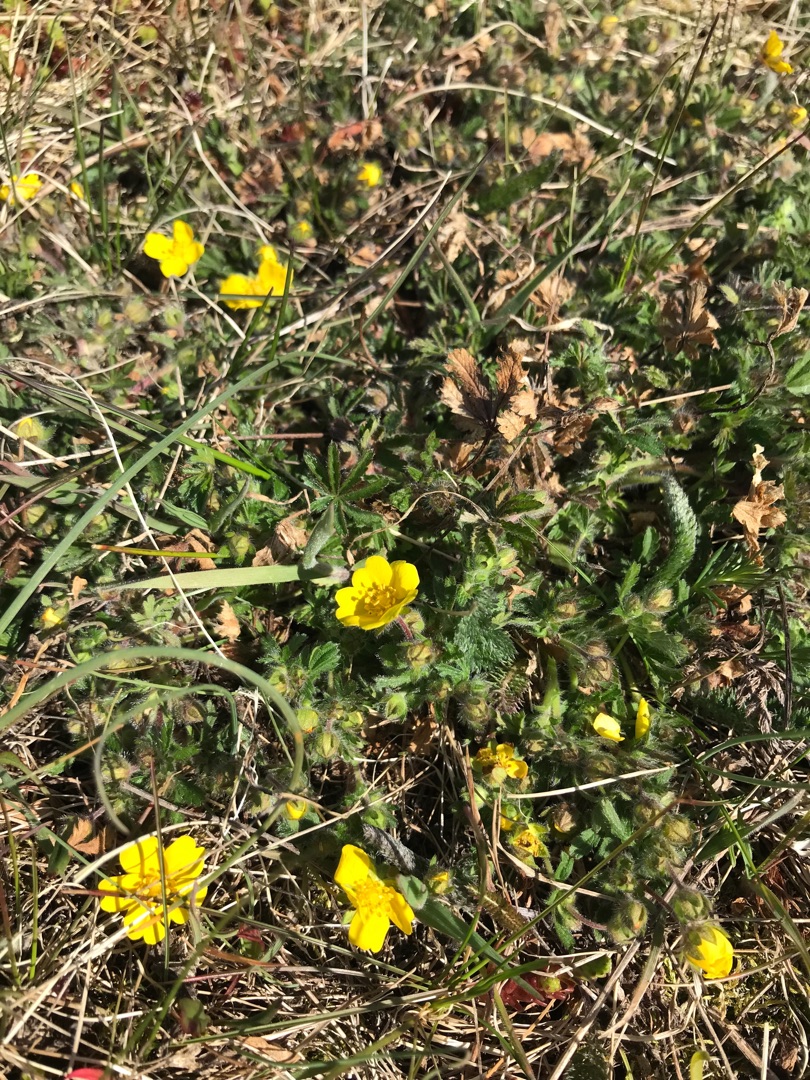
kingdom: Plantae
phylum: Tracheophyta
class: Magnoliopsida
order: Rosales
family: Rosaceae
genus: Potentilla
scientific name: Potentilla heptaphylla
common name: Mat potentil
